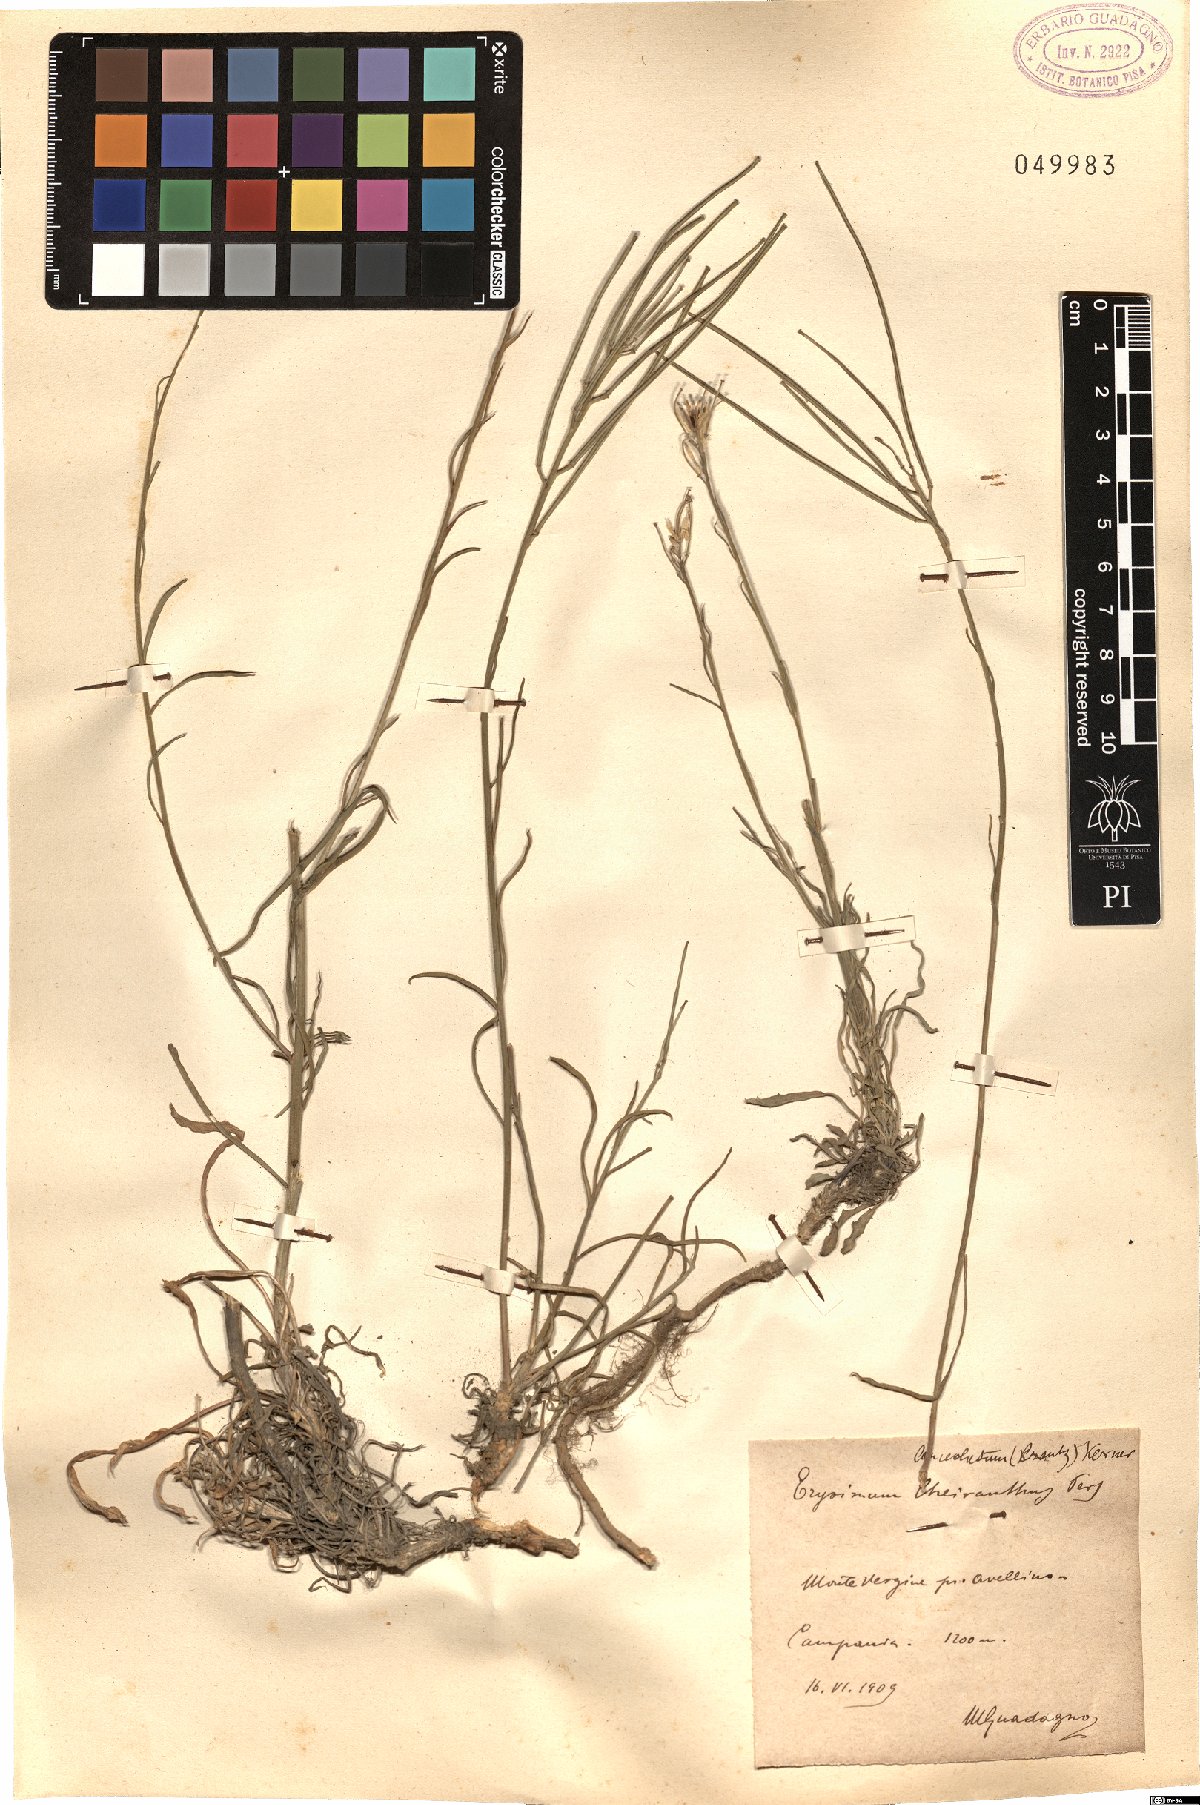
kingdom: Plantae
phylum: Tracheophyta
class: Magnoliopsida
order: Brassicales
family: Brassicaceae
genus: Erysimum
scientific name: Erysimum sylvestre
